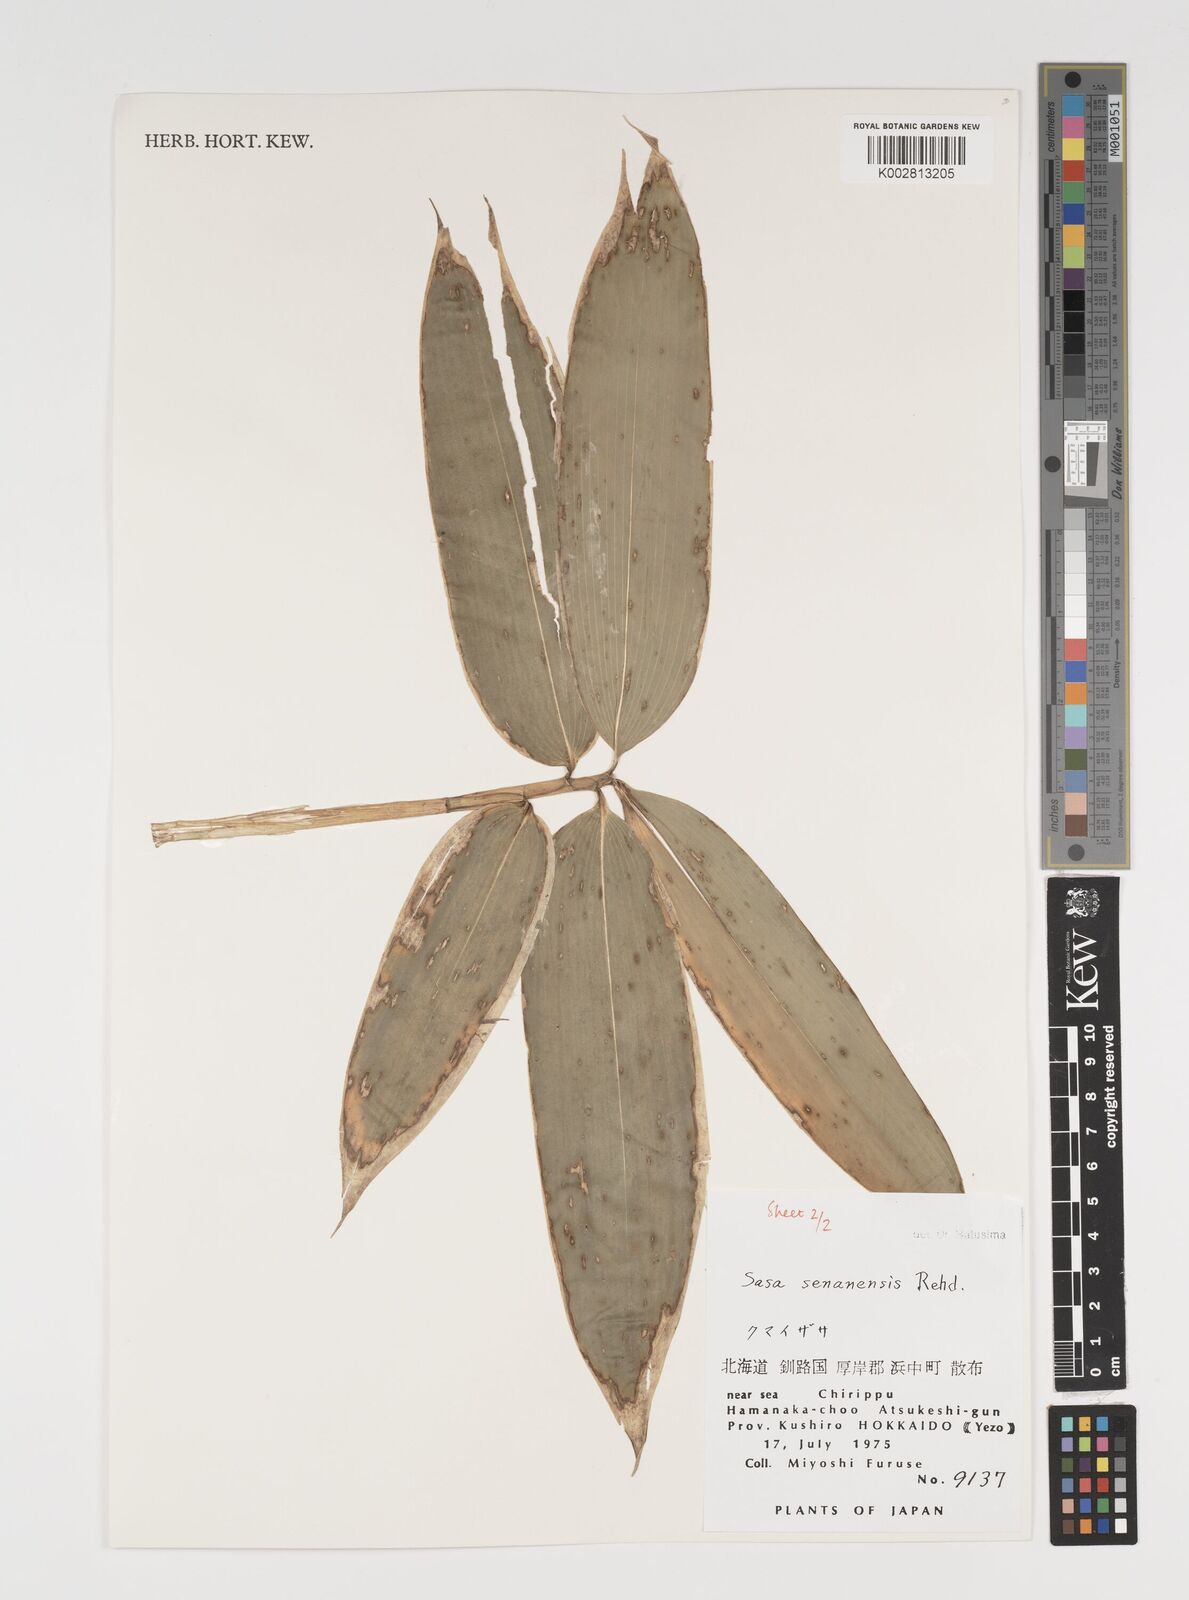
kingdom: Plantae
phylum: Tracheophyta
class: Liliopsida
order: Poales
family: Poaceae
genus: Sasa
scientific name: Sasa senanensis
